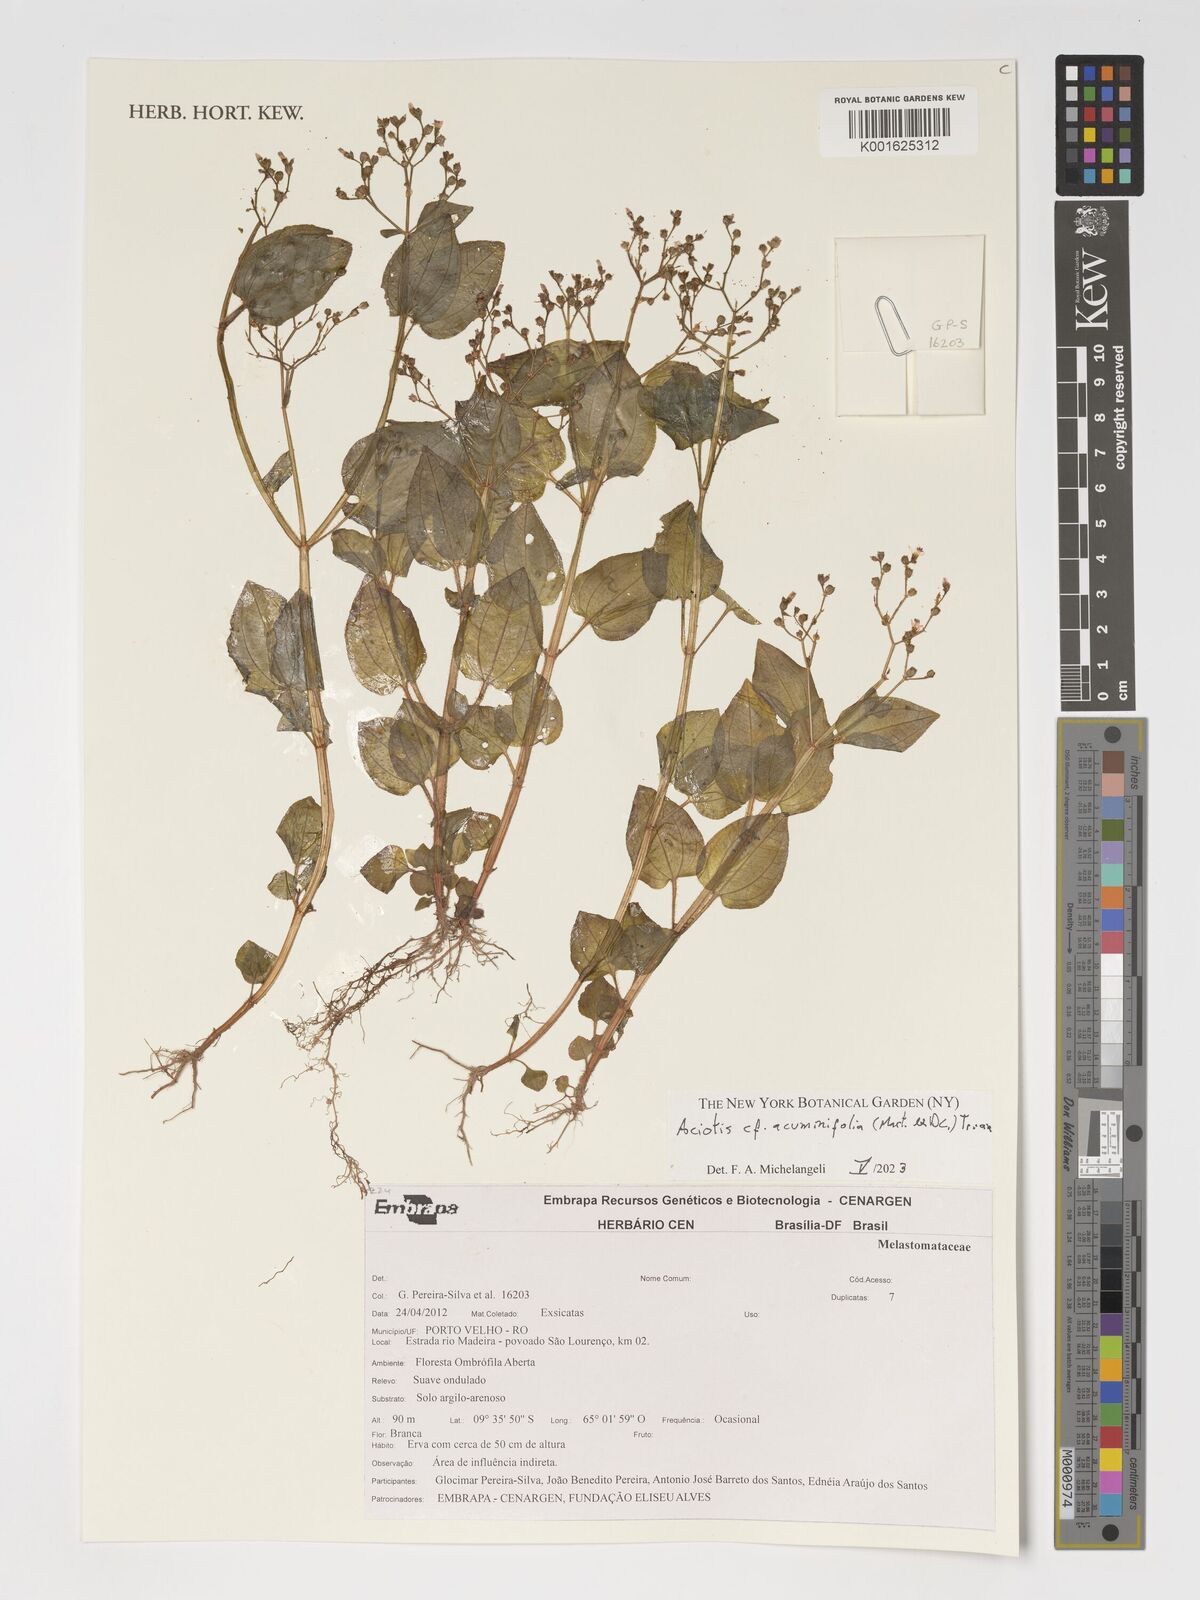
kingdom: Plantae
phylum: Tracheophyta
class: Magnoliopsida
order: Myrtales
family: Melastomataceae
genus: Aciotis
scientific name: Aciotis acuminifolia
